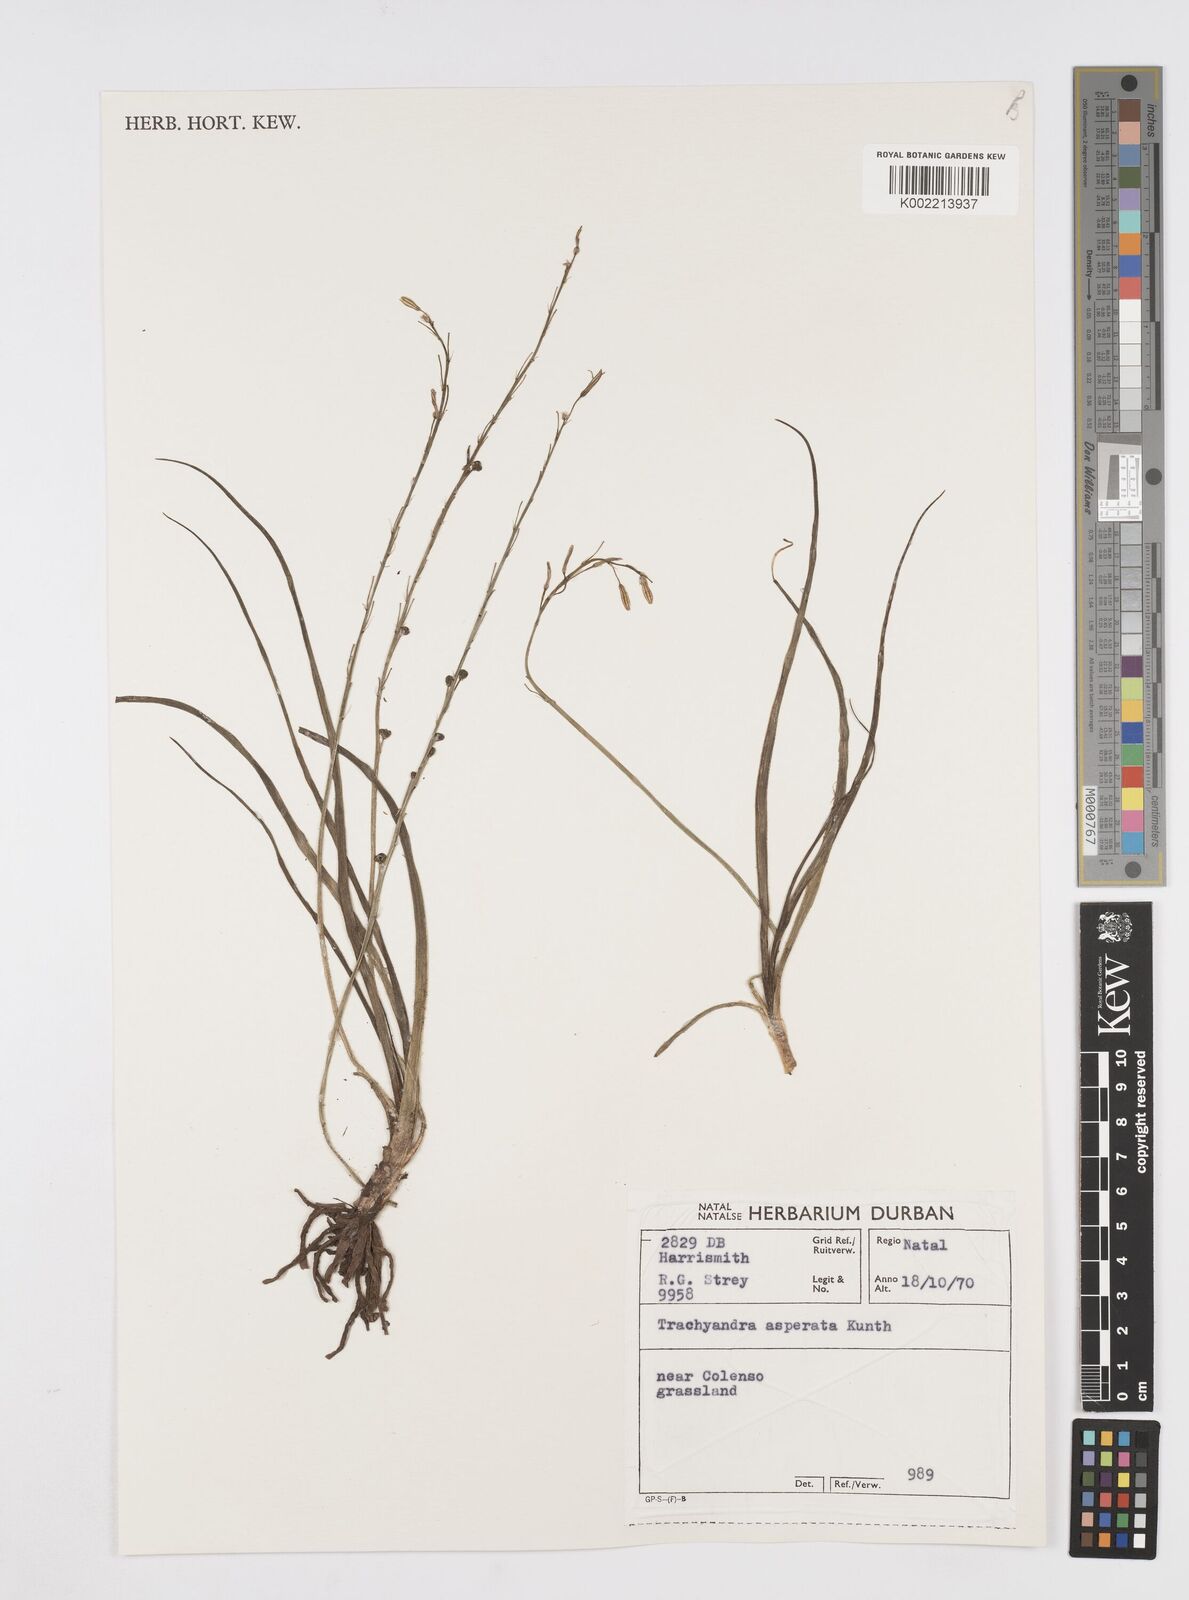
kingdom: Plantae
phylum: Tracheophyta
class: Liliopsida
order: Asparagales
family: Asphodelaceae
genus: Trachyandra
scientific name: Trachyandra asperata
